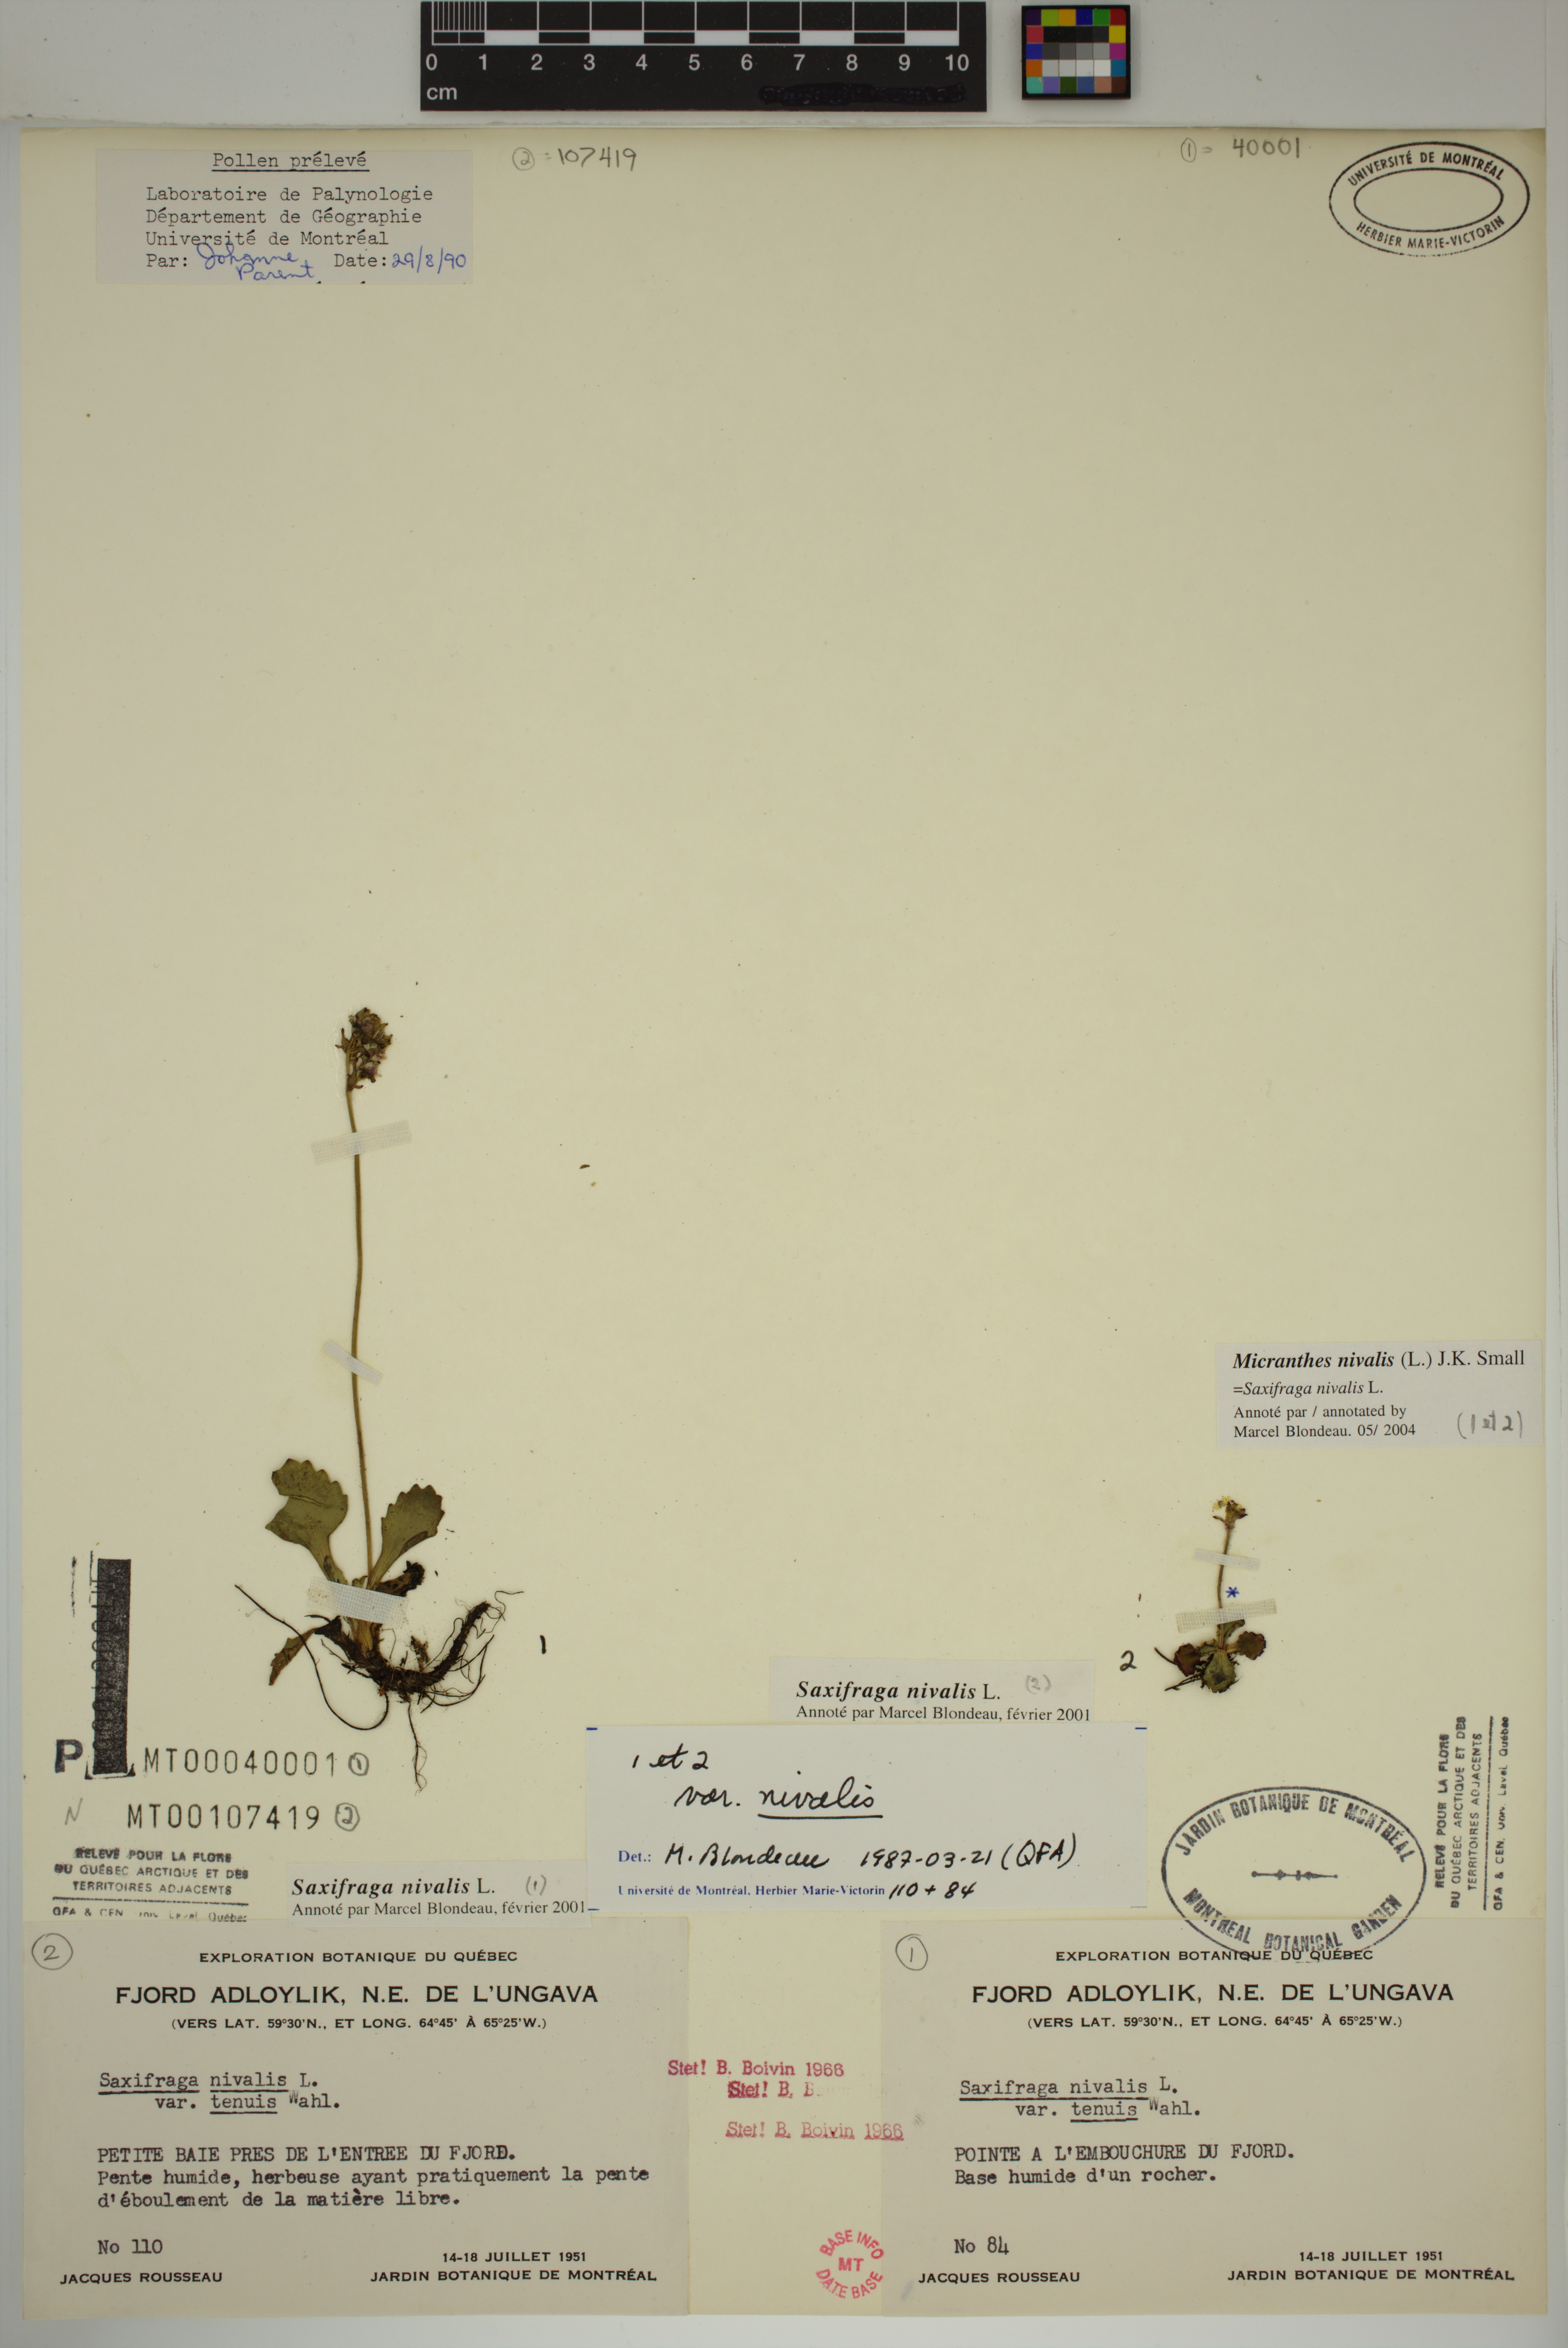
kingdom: Plantae
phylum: Tracheophyta
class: Magnoliopsida
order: Saxifragales
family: Saxifragaceae
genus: Micranthes
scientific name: Micranthes nivalis
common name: Alpine saxifrage
